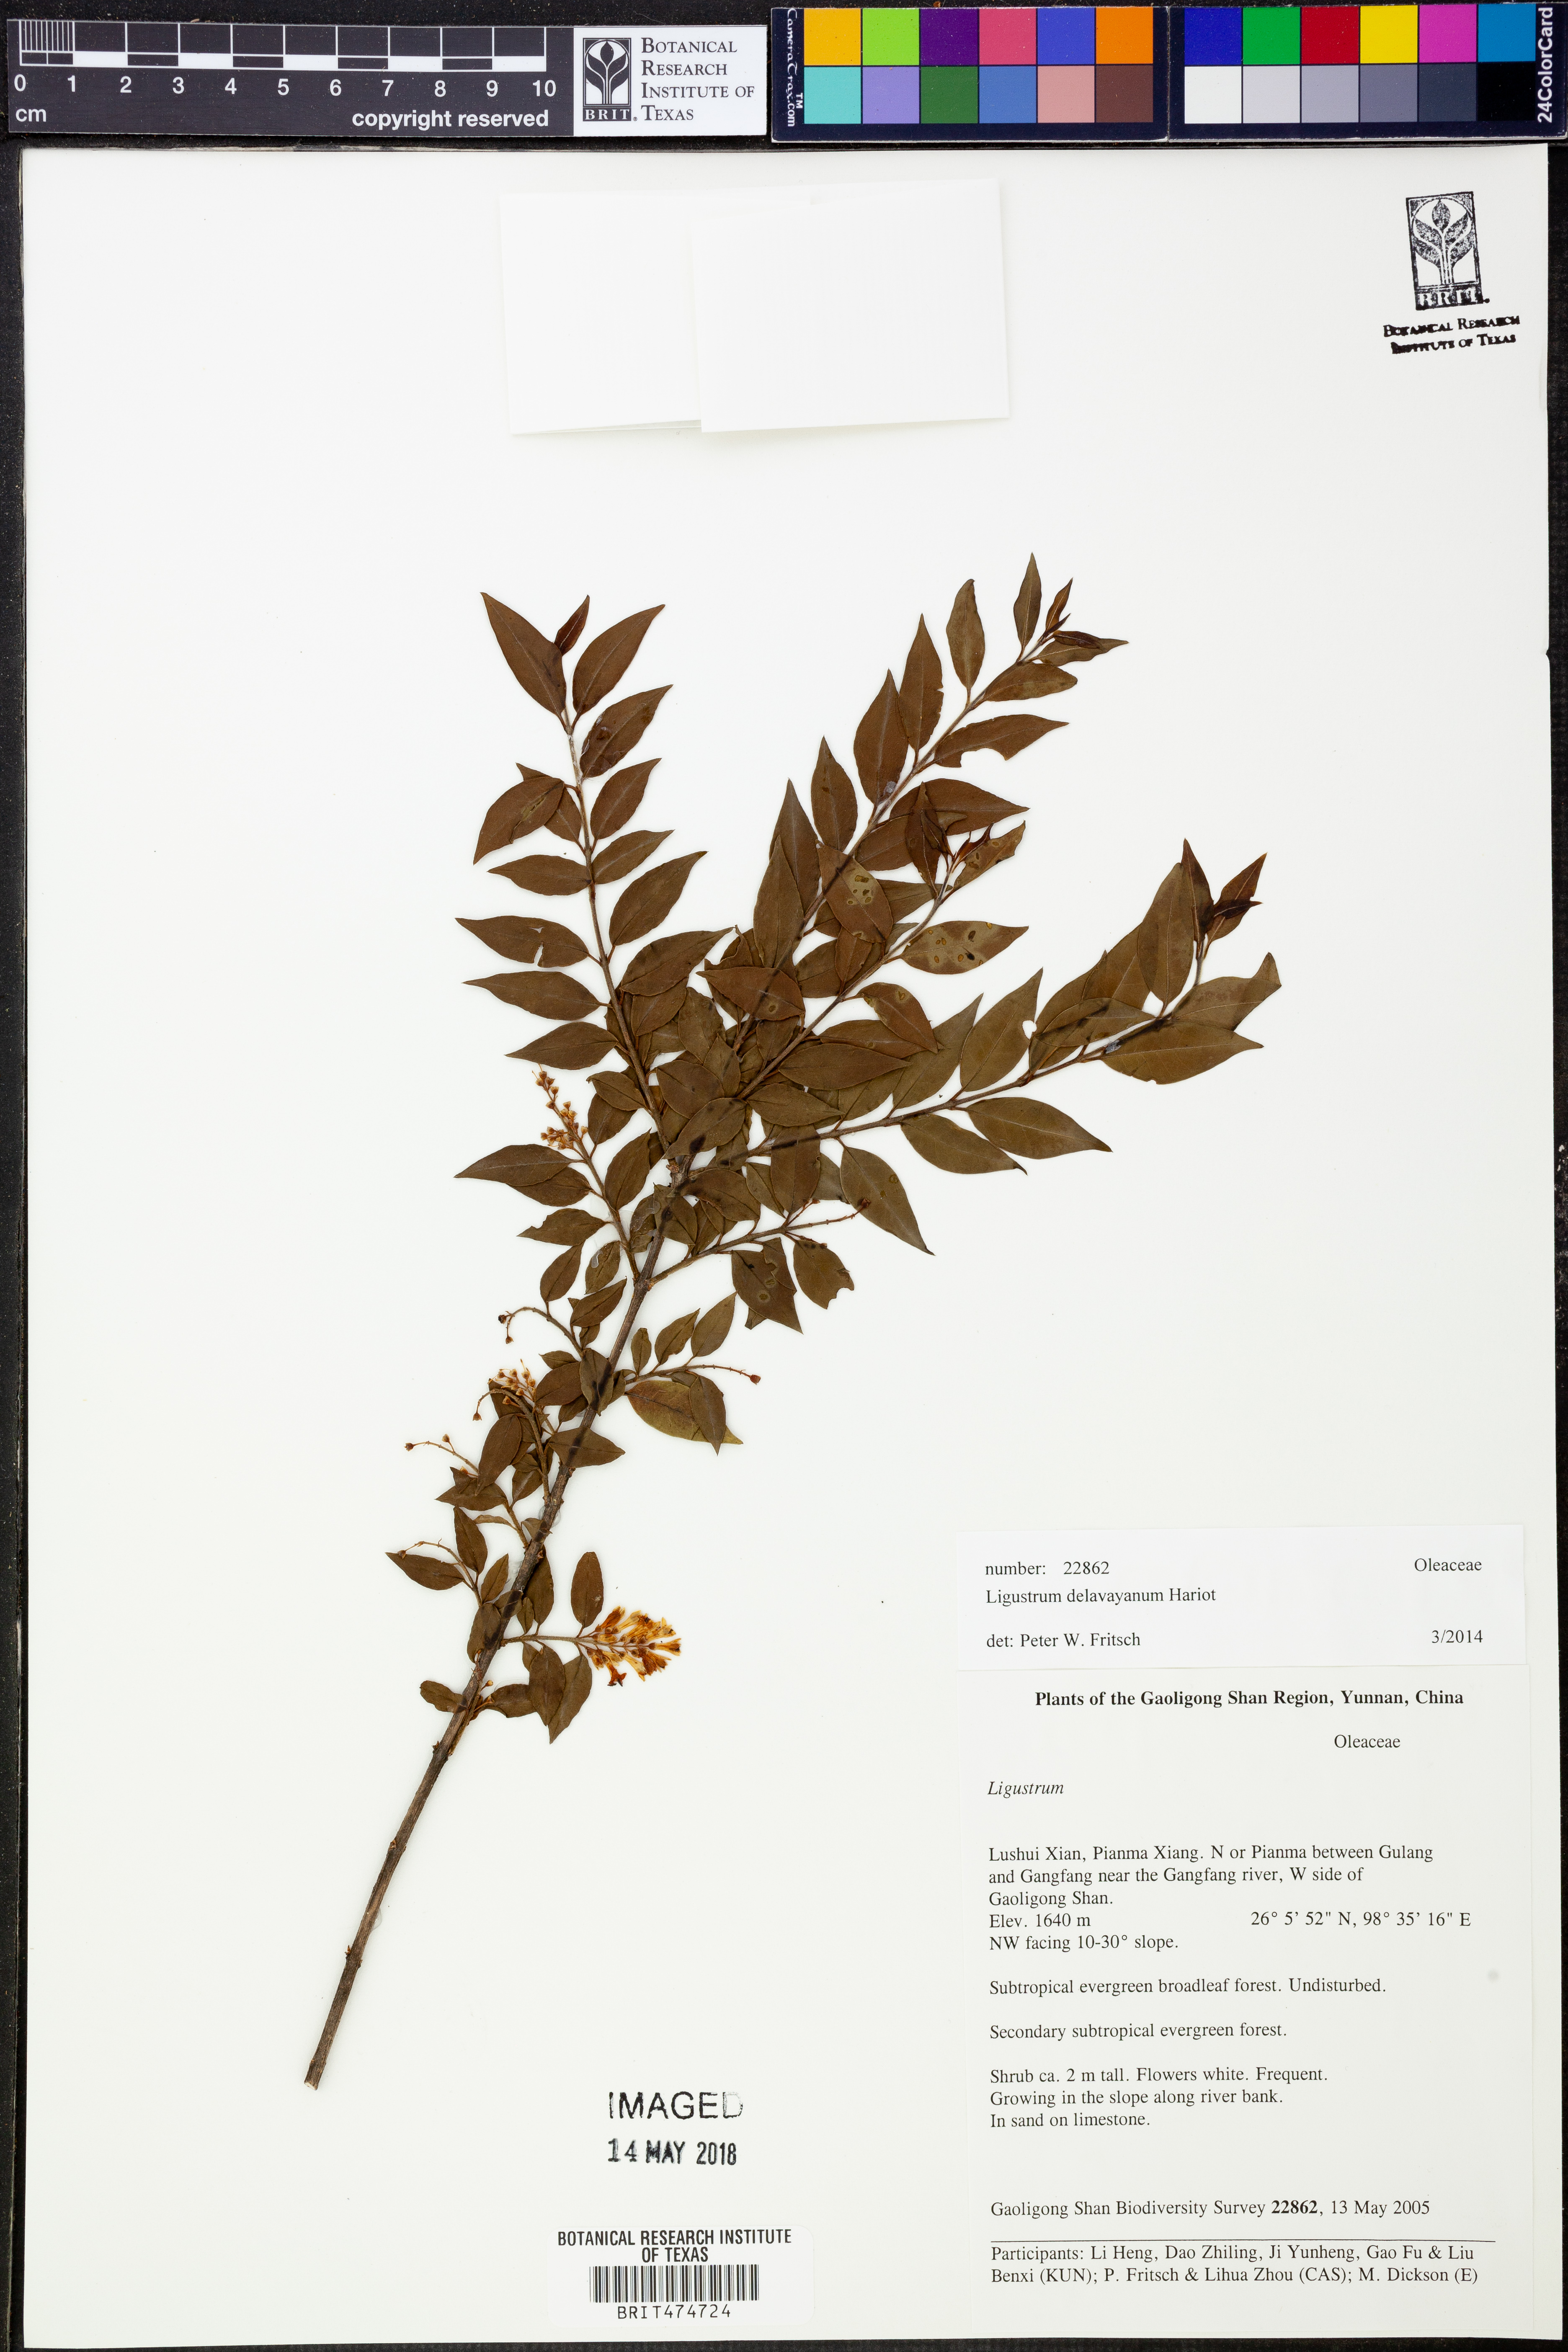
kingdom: Plantae
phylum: Tracheophyta
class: Magnoliopsida
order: Lamiales
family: Oleaceae
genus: Ligustrum
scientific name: Ligustrum delavayanum
